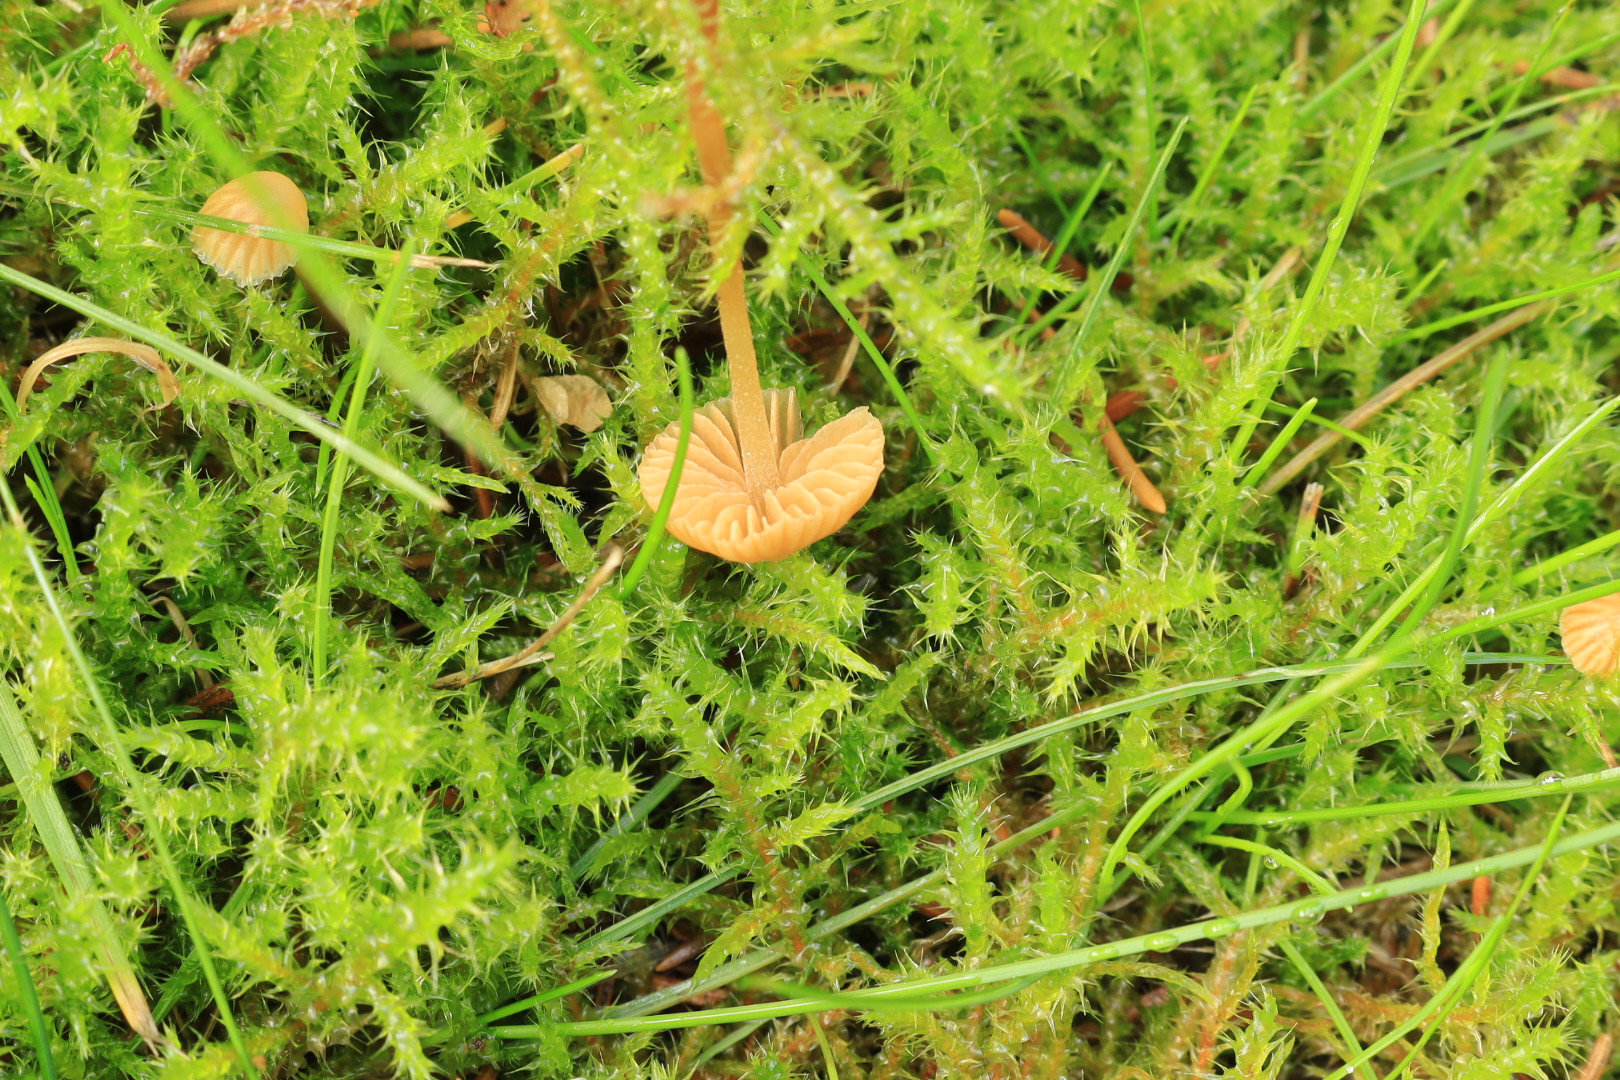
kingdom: Fungi
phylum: Basidiomycota
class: Agaricomycetes
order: Agaricales
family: Hymenogastraceae
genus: Galerina
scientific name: Galerina
